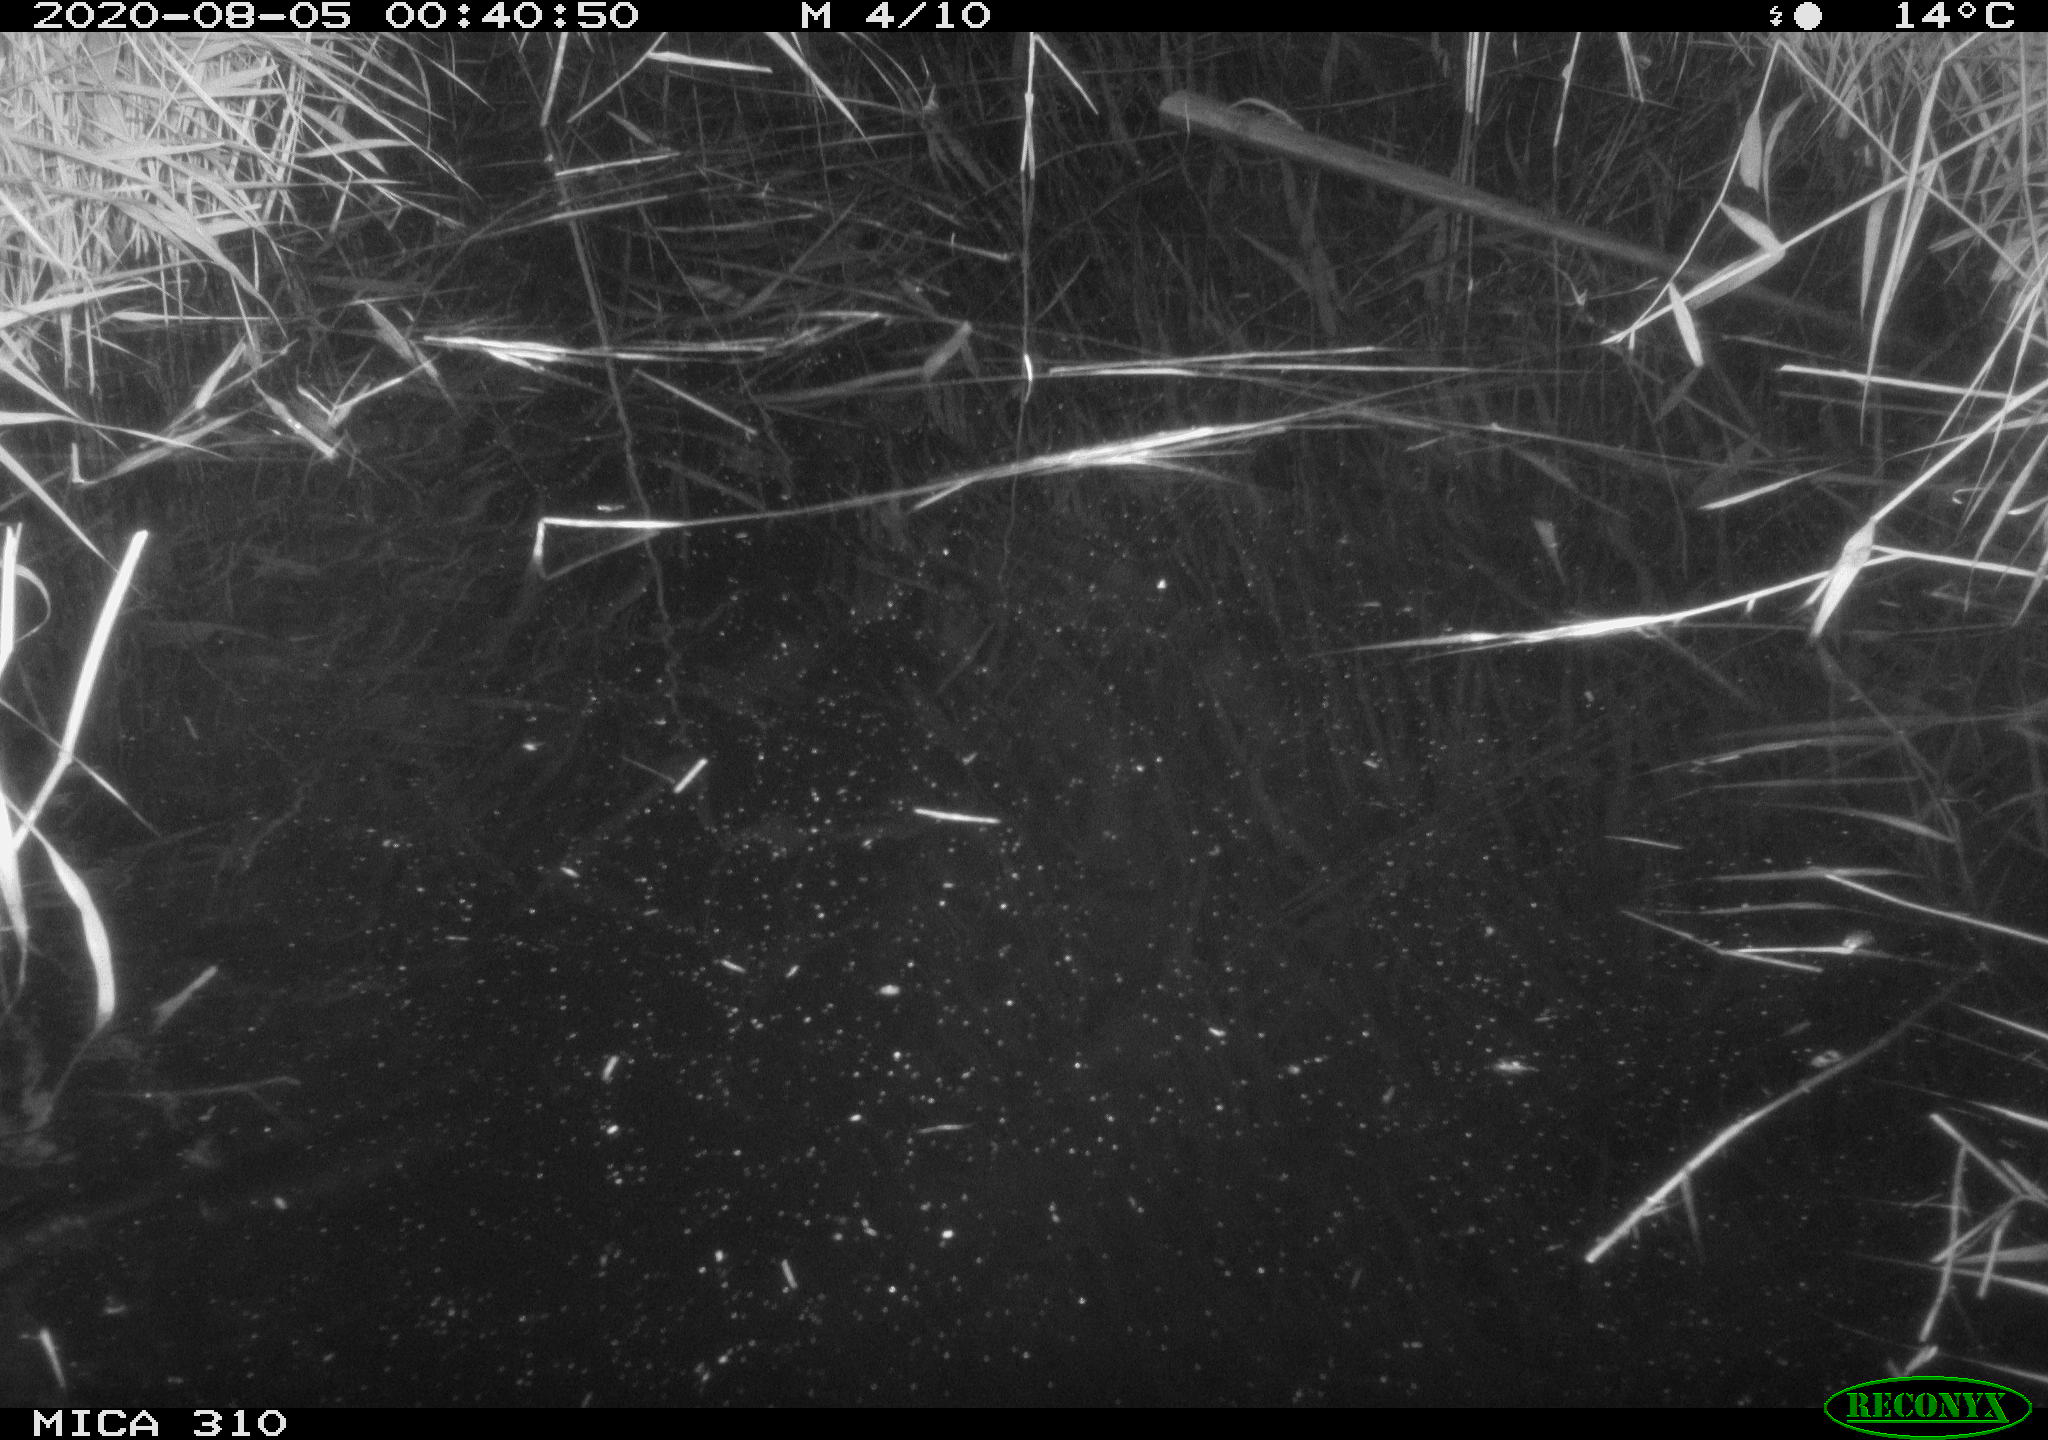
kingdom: Animalia
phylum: Chordata
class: Aves
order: Anseriformes
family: Anatidae
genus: Anas
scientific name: Anas platyrhynchos
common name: Mallard
